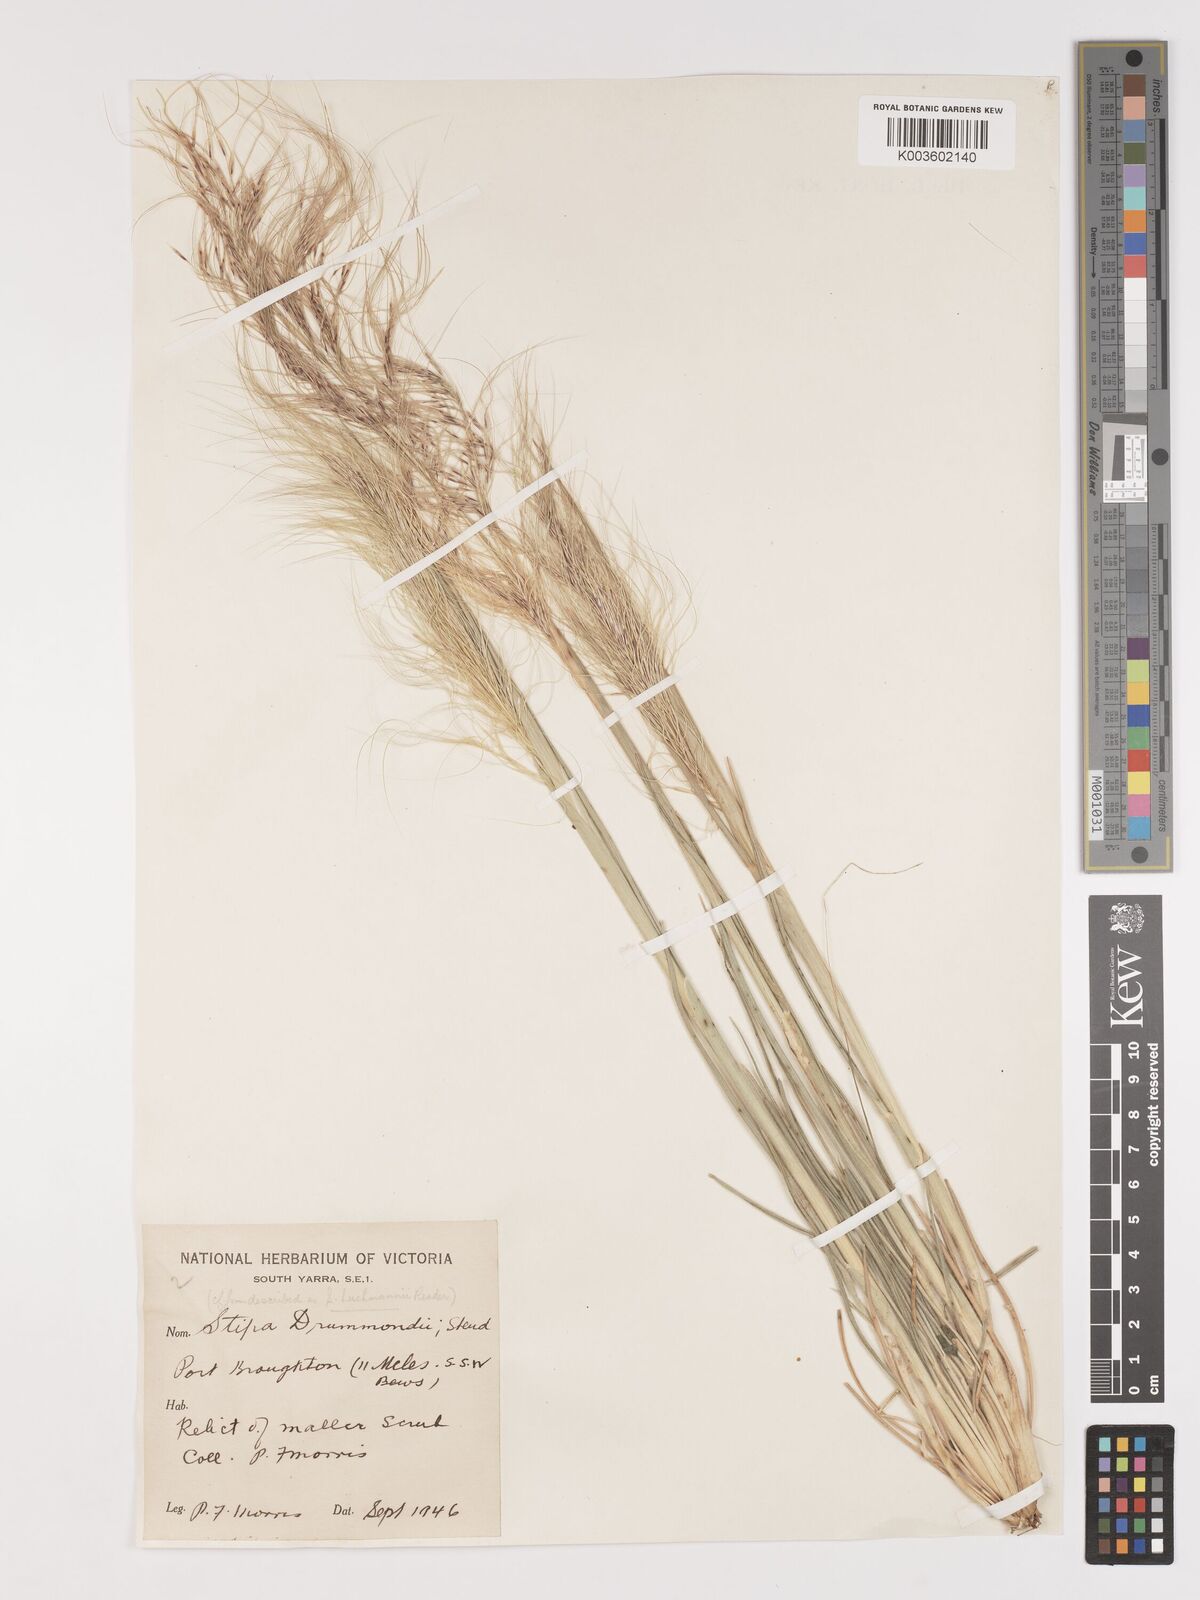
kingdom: Plantae
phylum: Tracheophyta
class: Liliopsida
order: Poales
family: Poaceae
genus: Austrostipa
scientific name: Austrostipa drummondii
